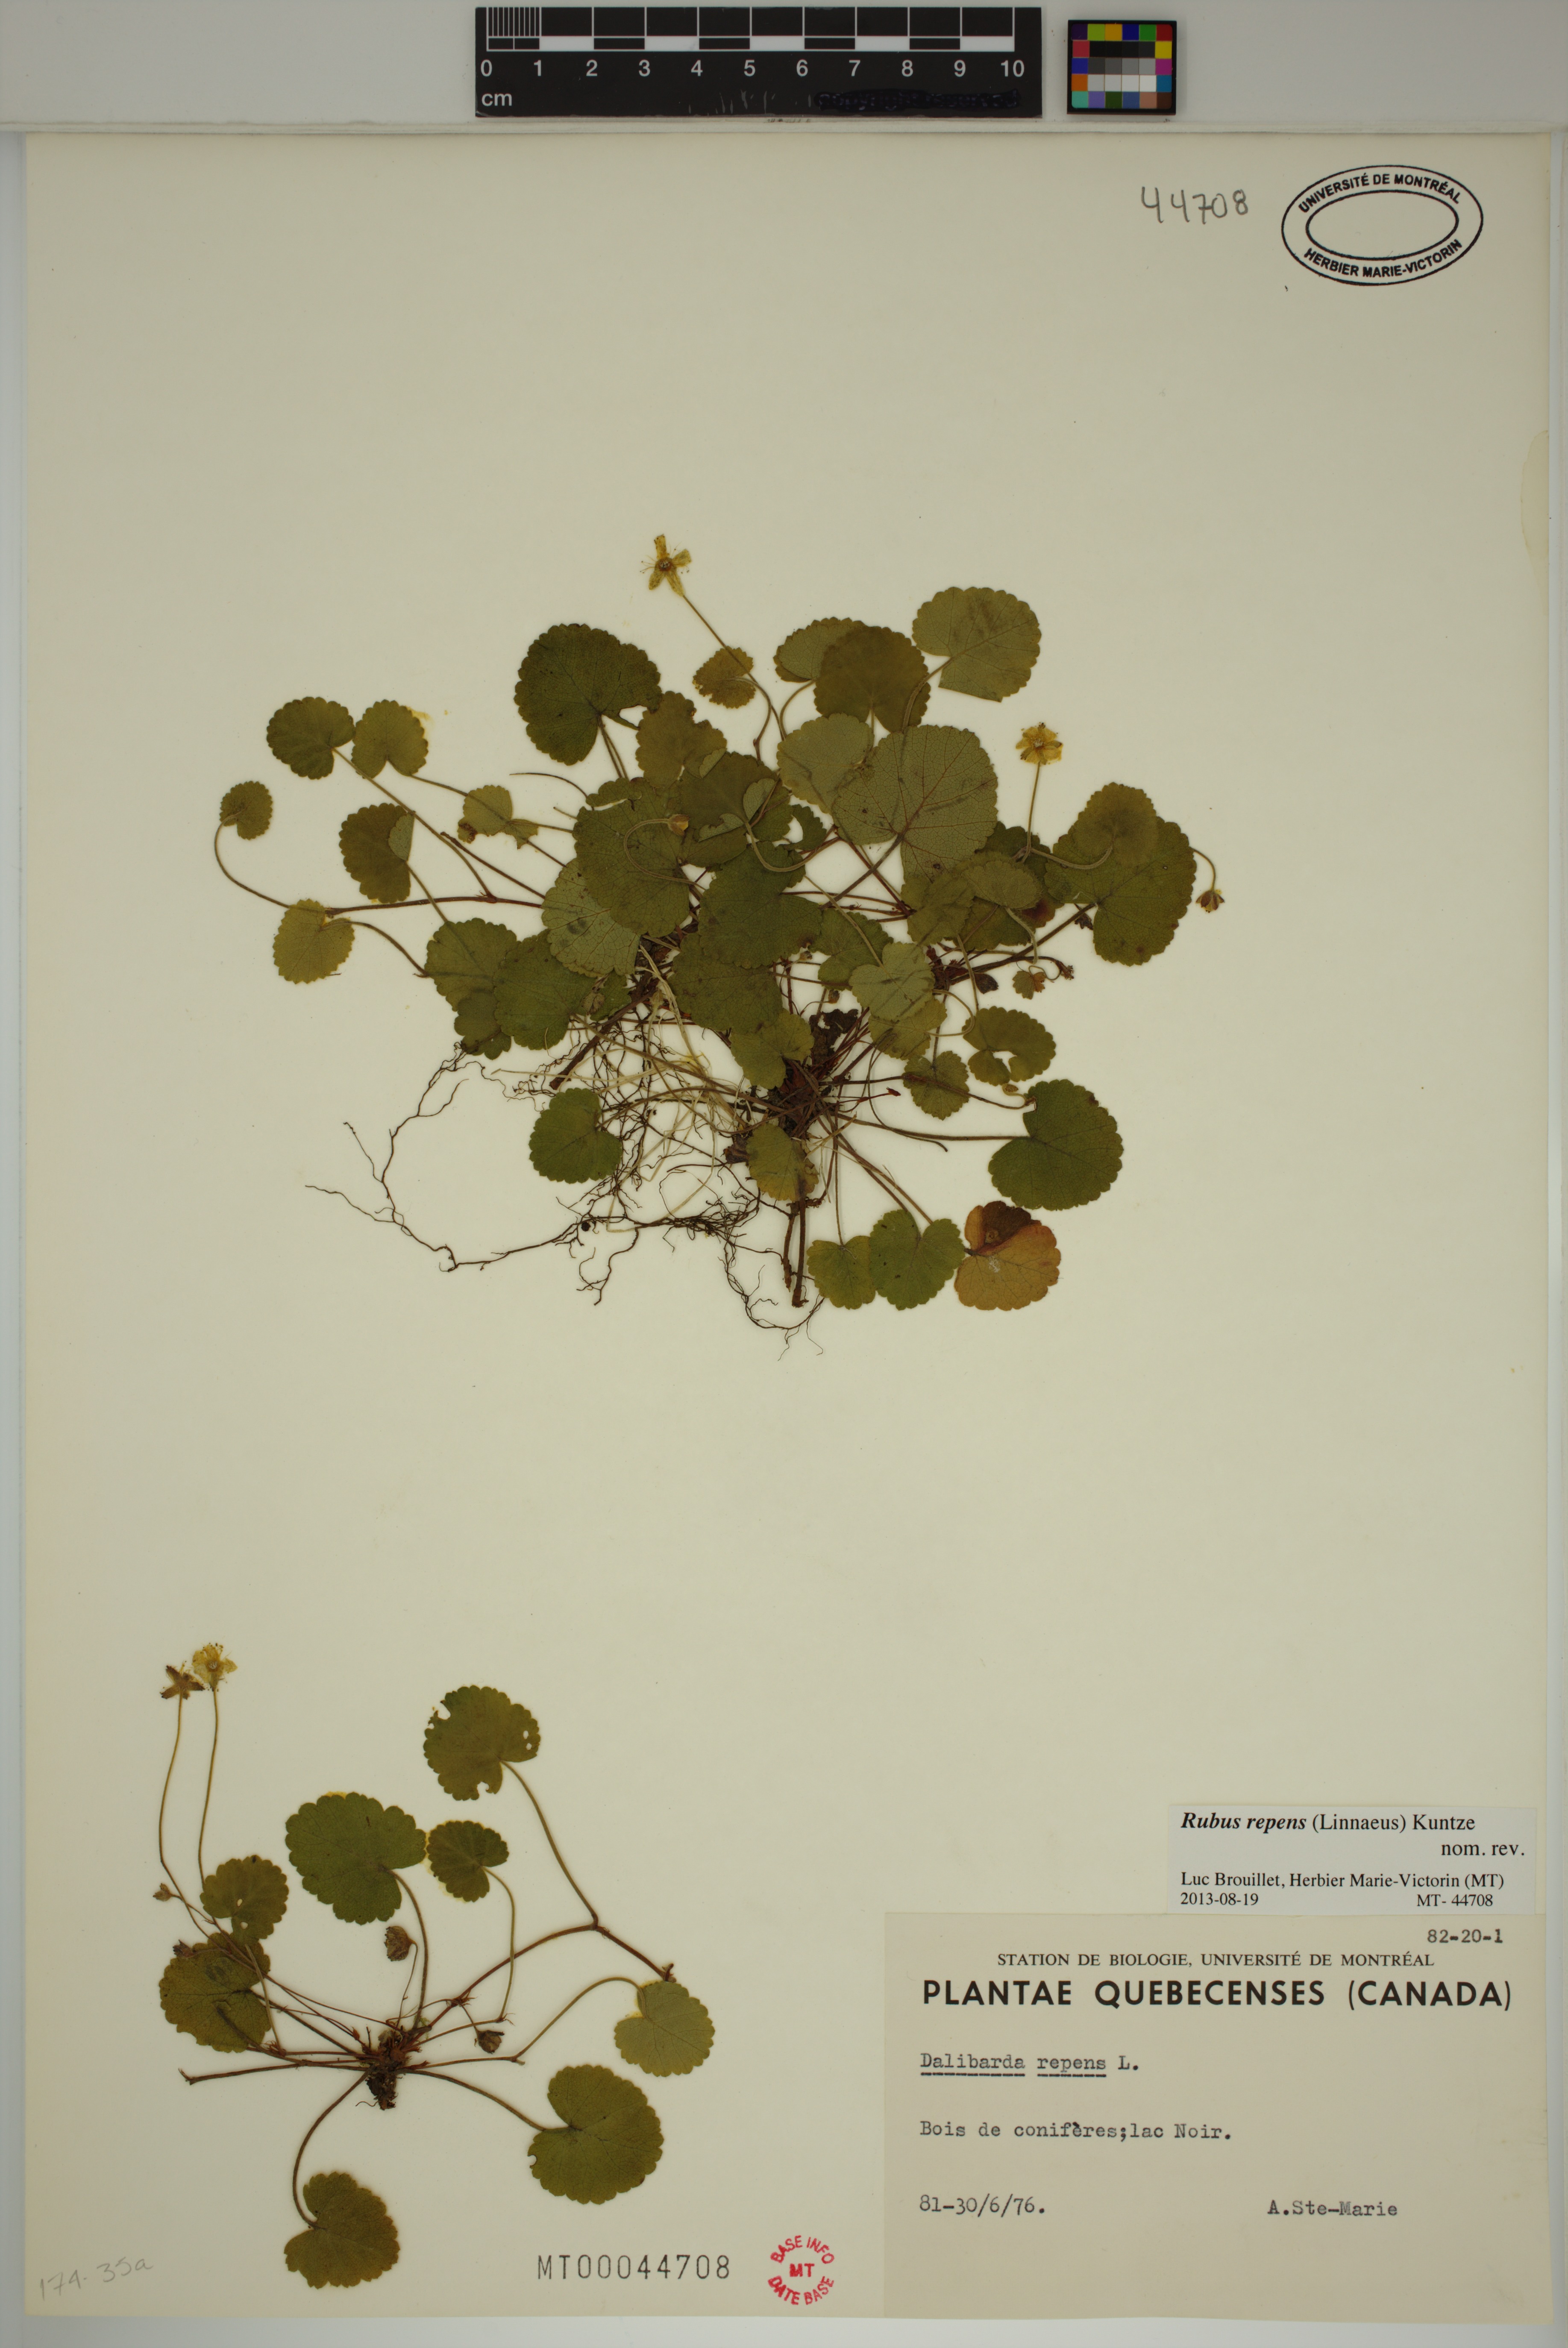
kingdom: Plantae
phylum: Tracheophyta
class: Magnoliopsida
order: Rosales
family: Rosaceae
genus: Dalibarda
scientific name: Dalibarda repens
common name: Dewdrop
